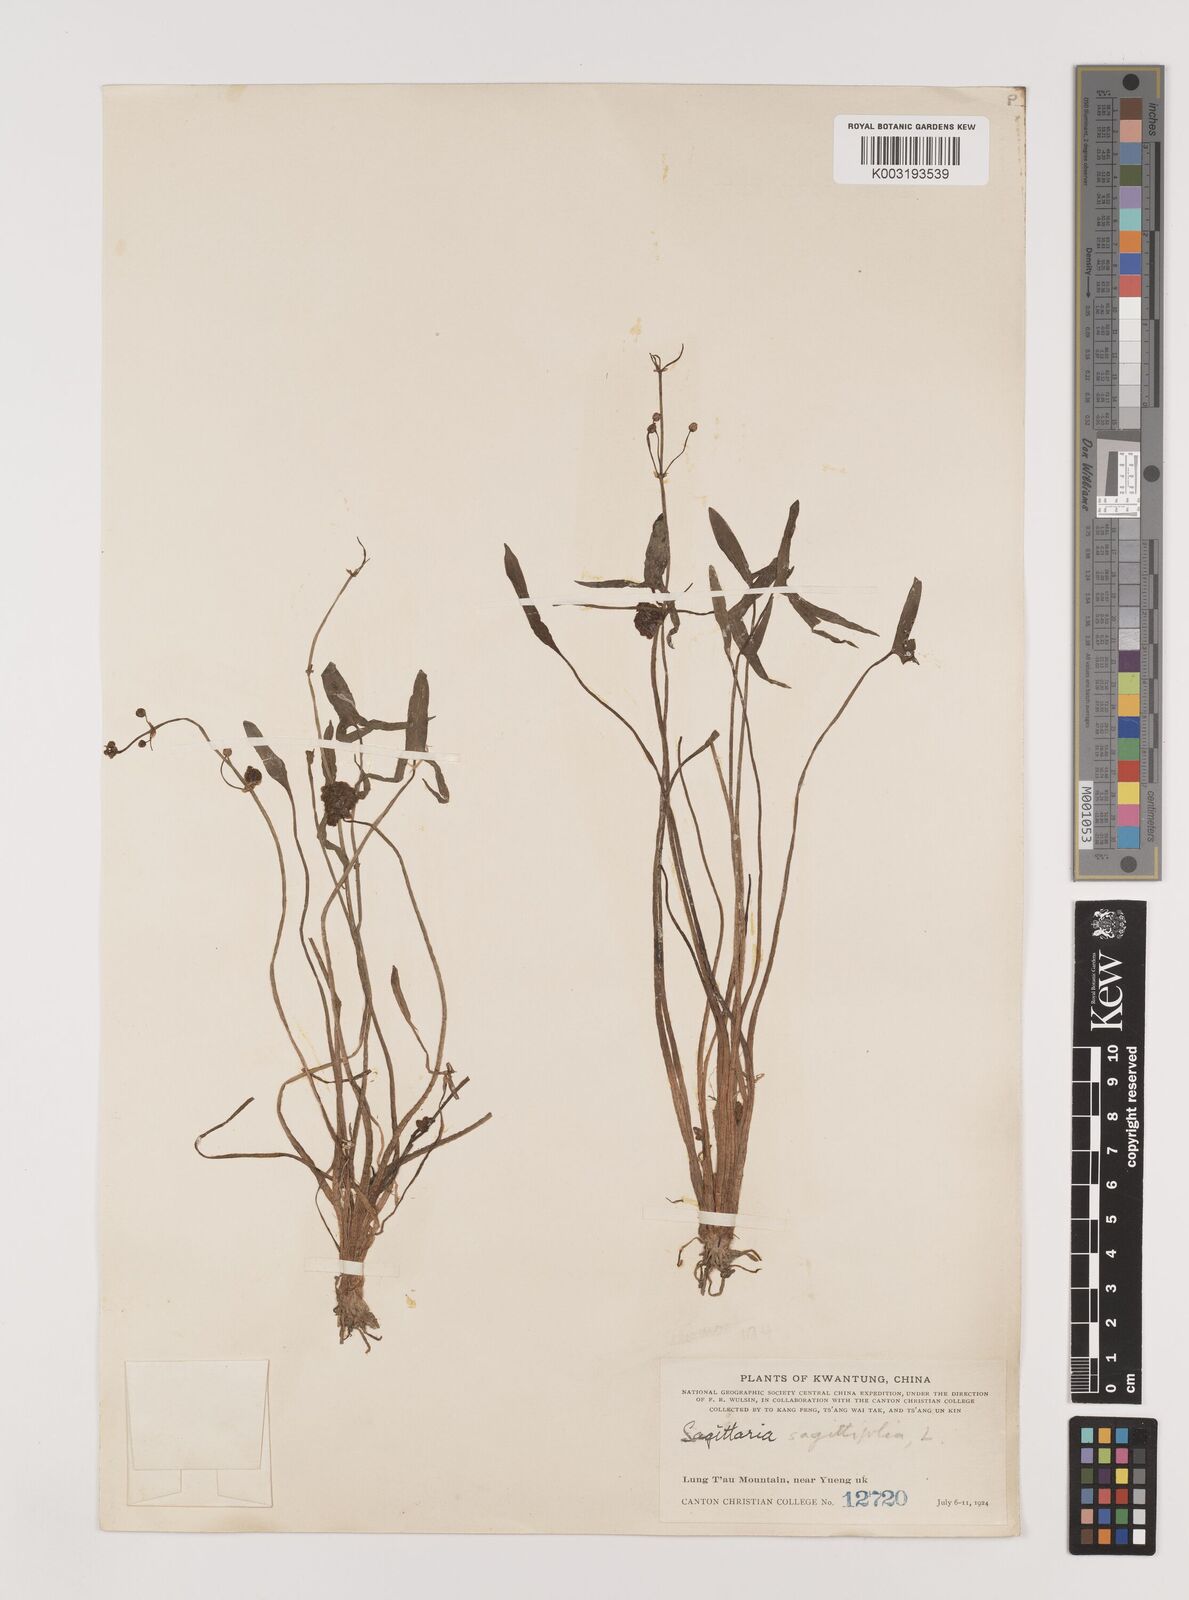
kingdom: Plantae
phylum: Tracheophyta
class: Liliopsida
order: Alismatales
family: Alismataceae
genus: Sagittaria
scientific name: Sagittaria sagittifolia
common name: Arrowhead
